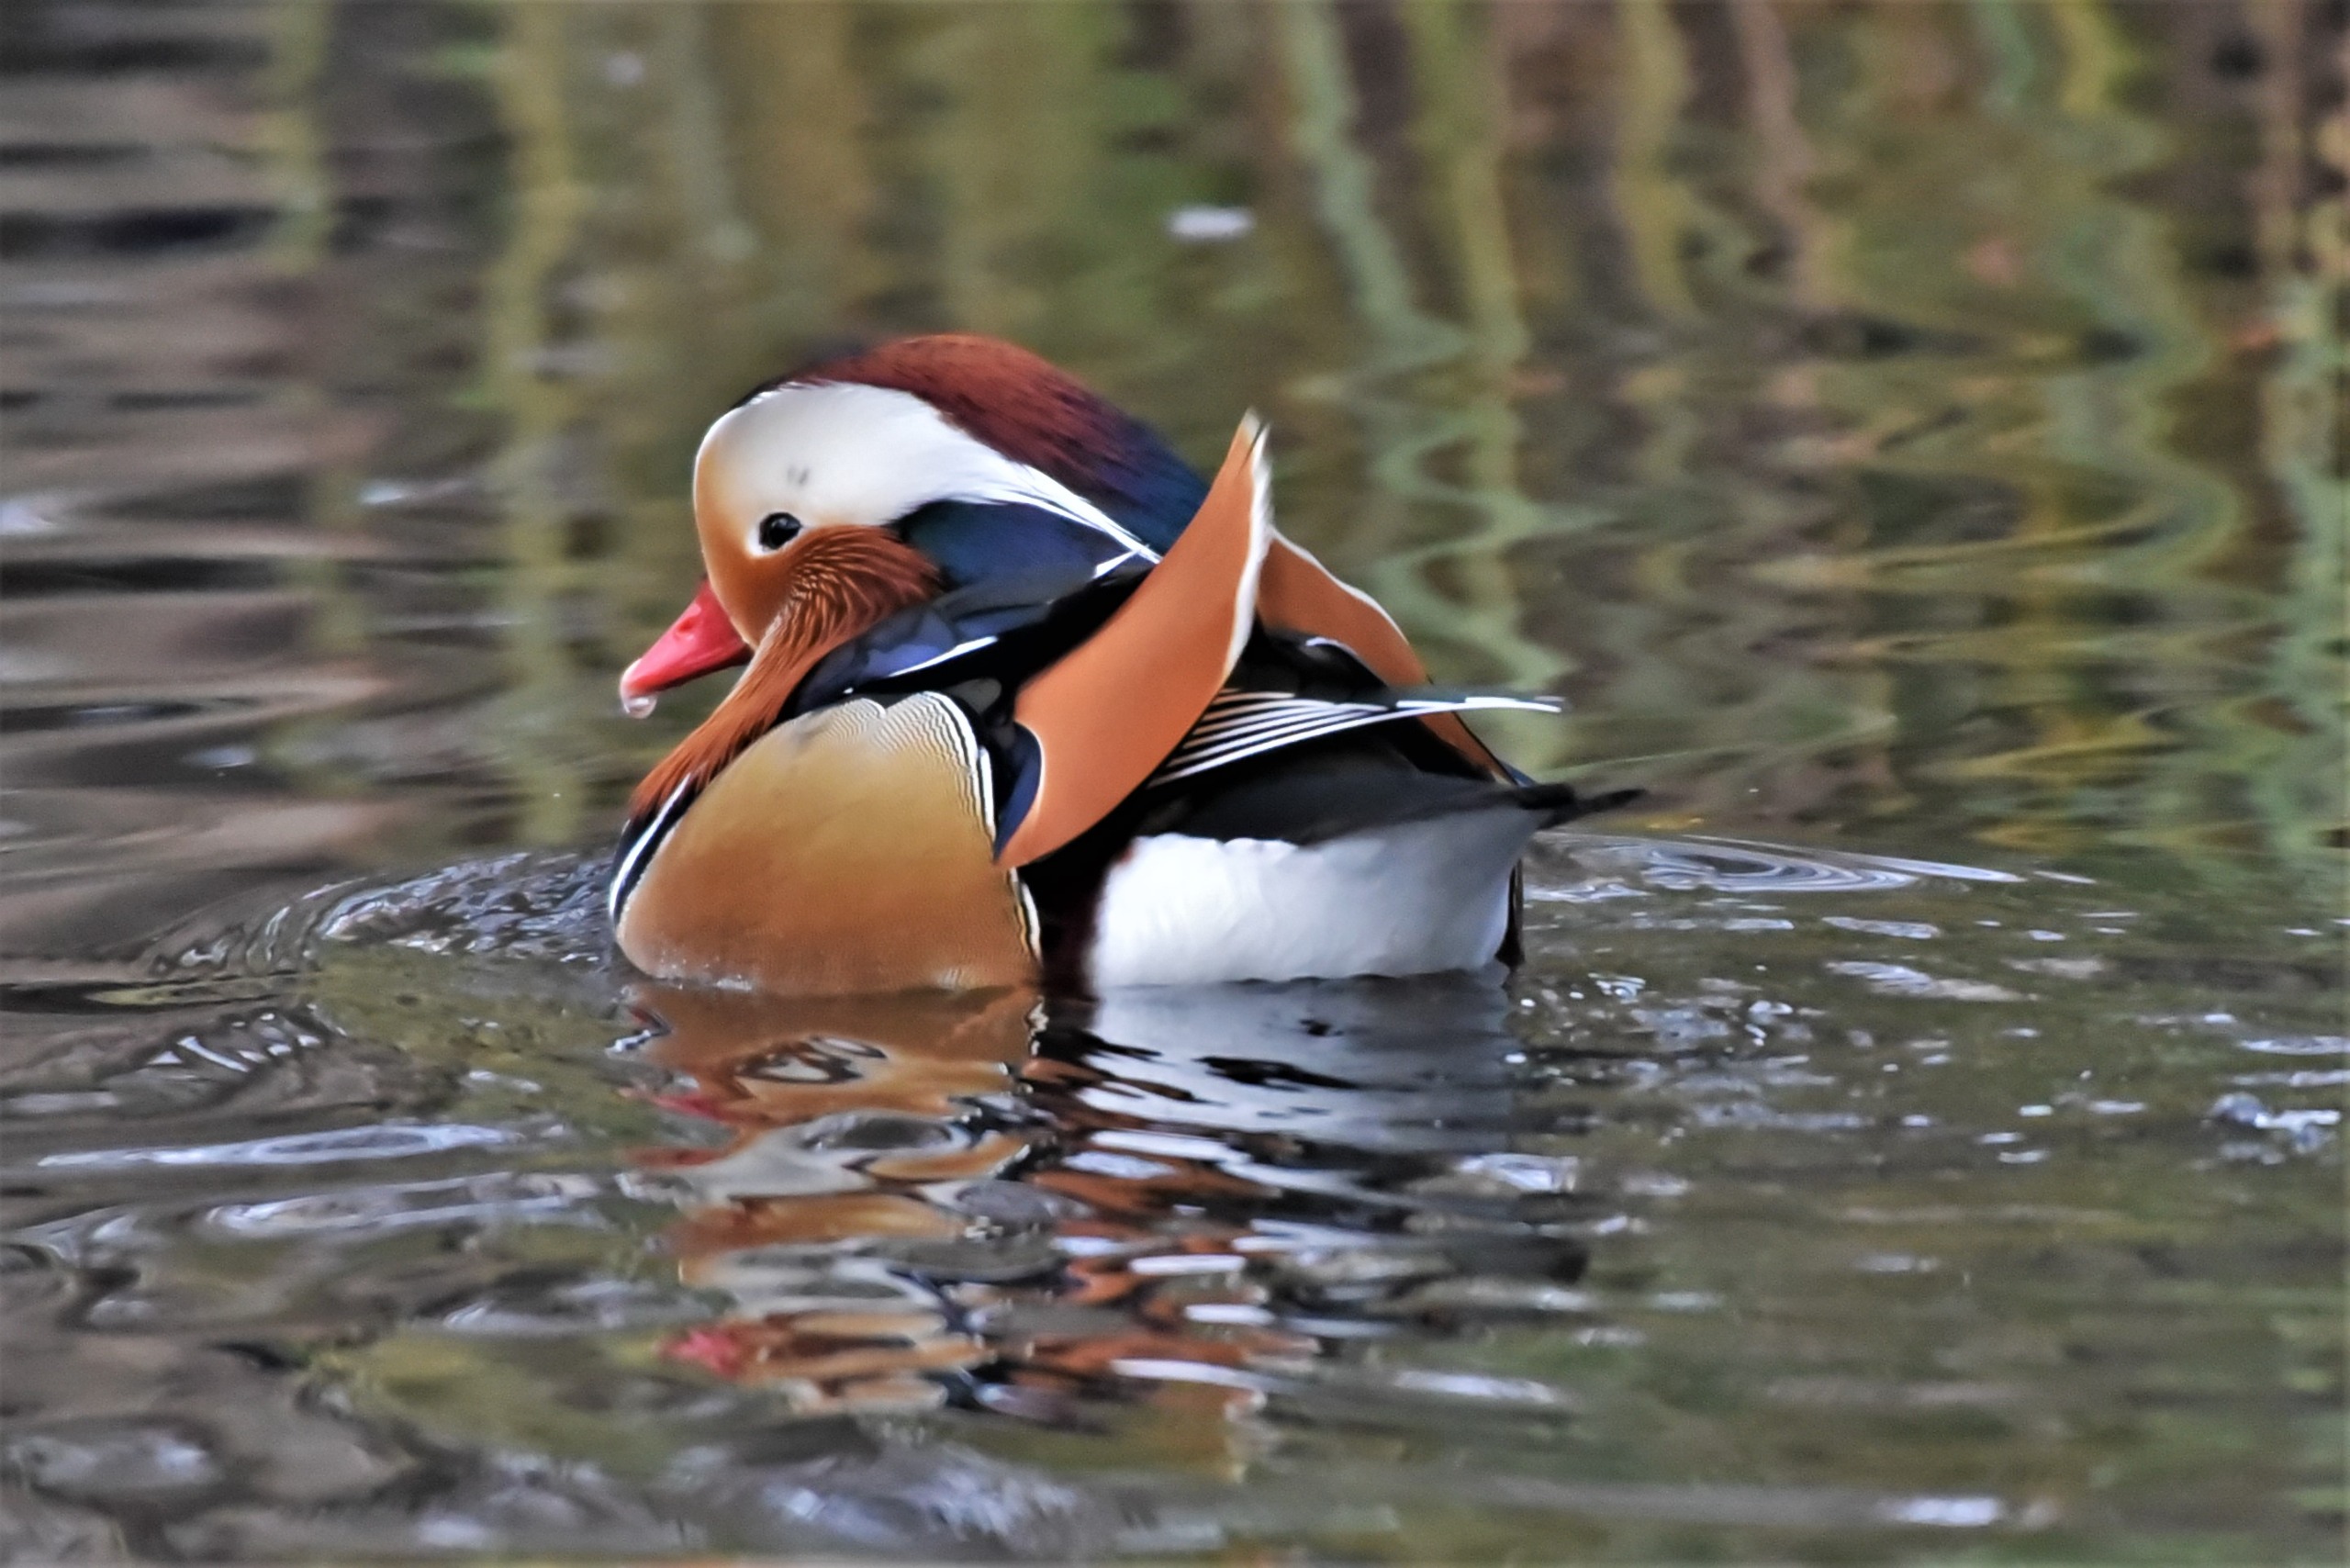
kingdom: Animalia
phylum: Chordata
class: Aves
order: Anseriformes
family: Anatidae
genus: Aix
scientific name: Aix galericulata
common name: Mandarinand
